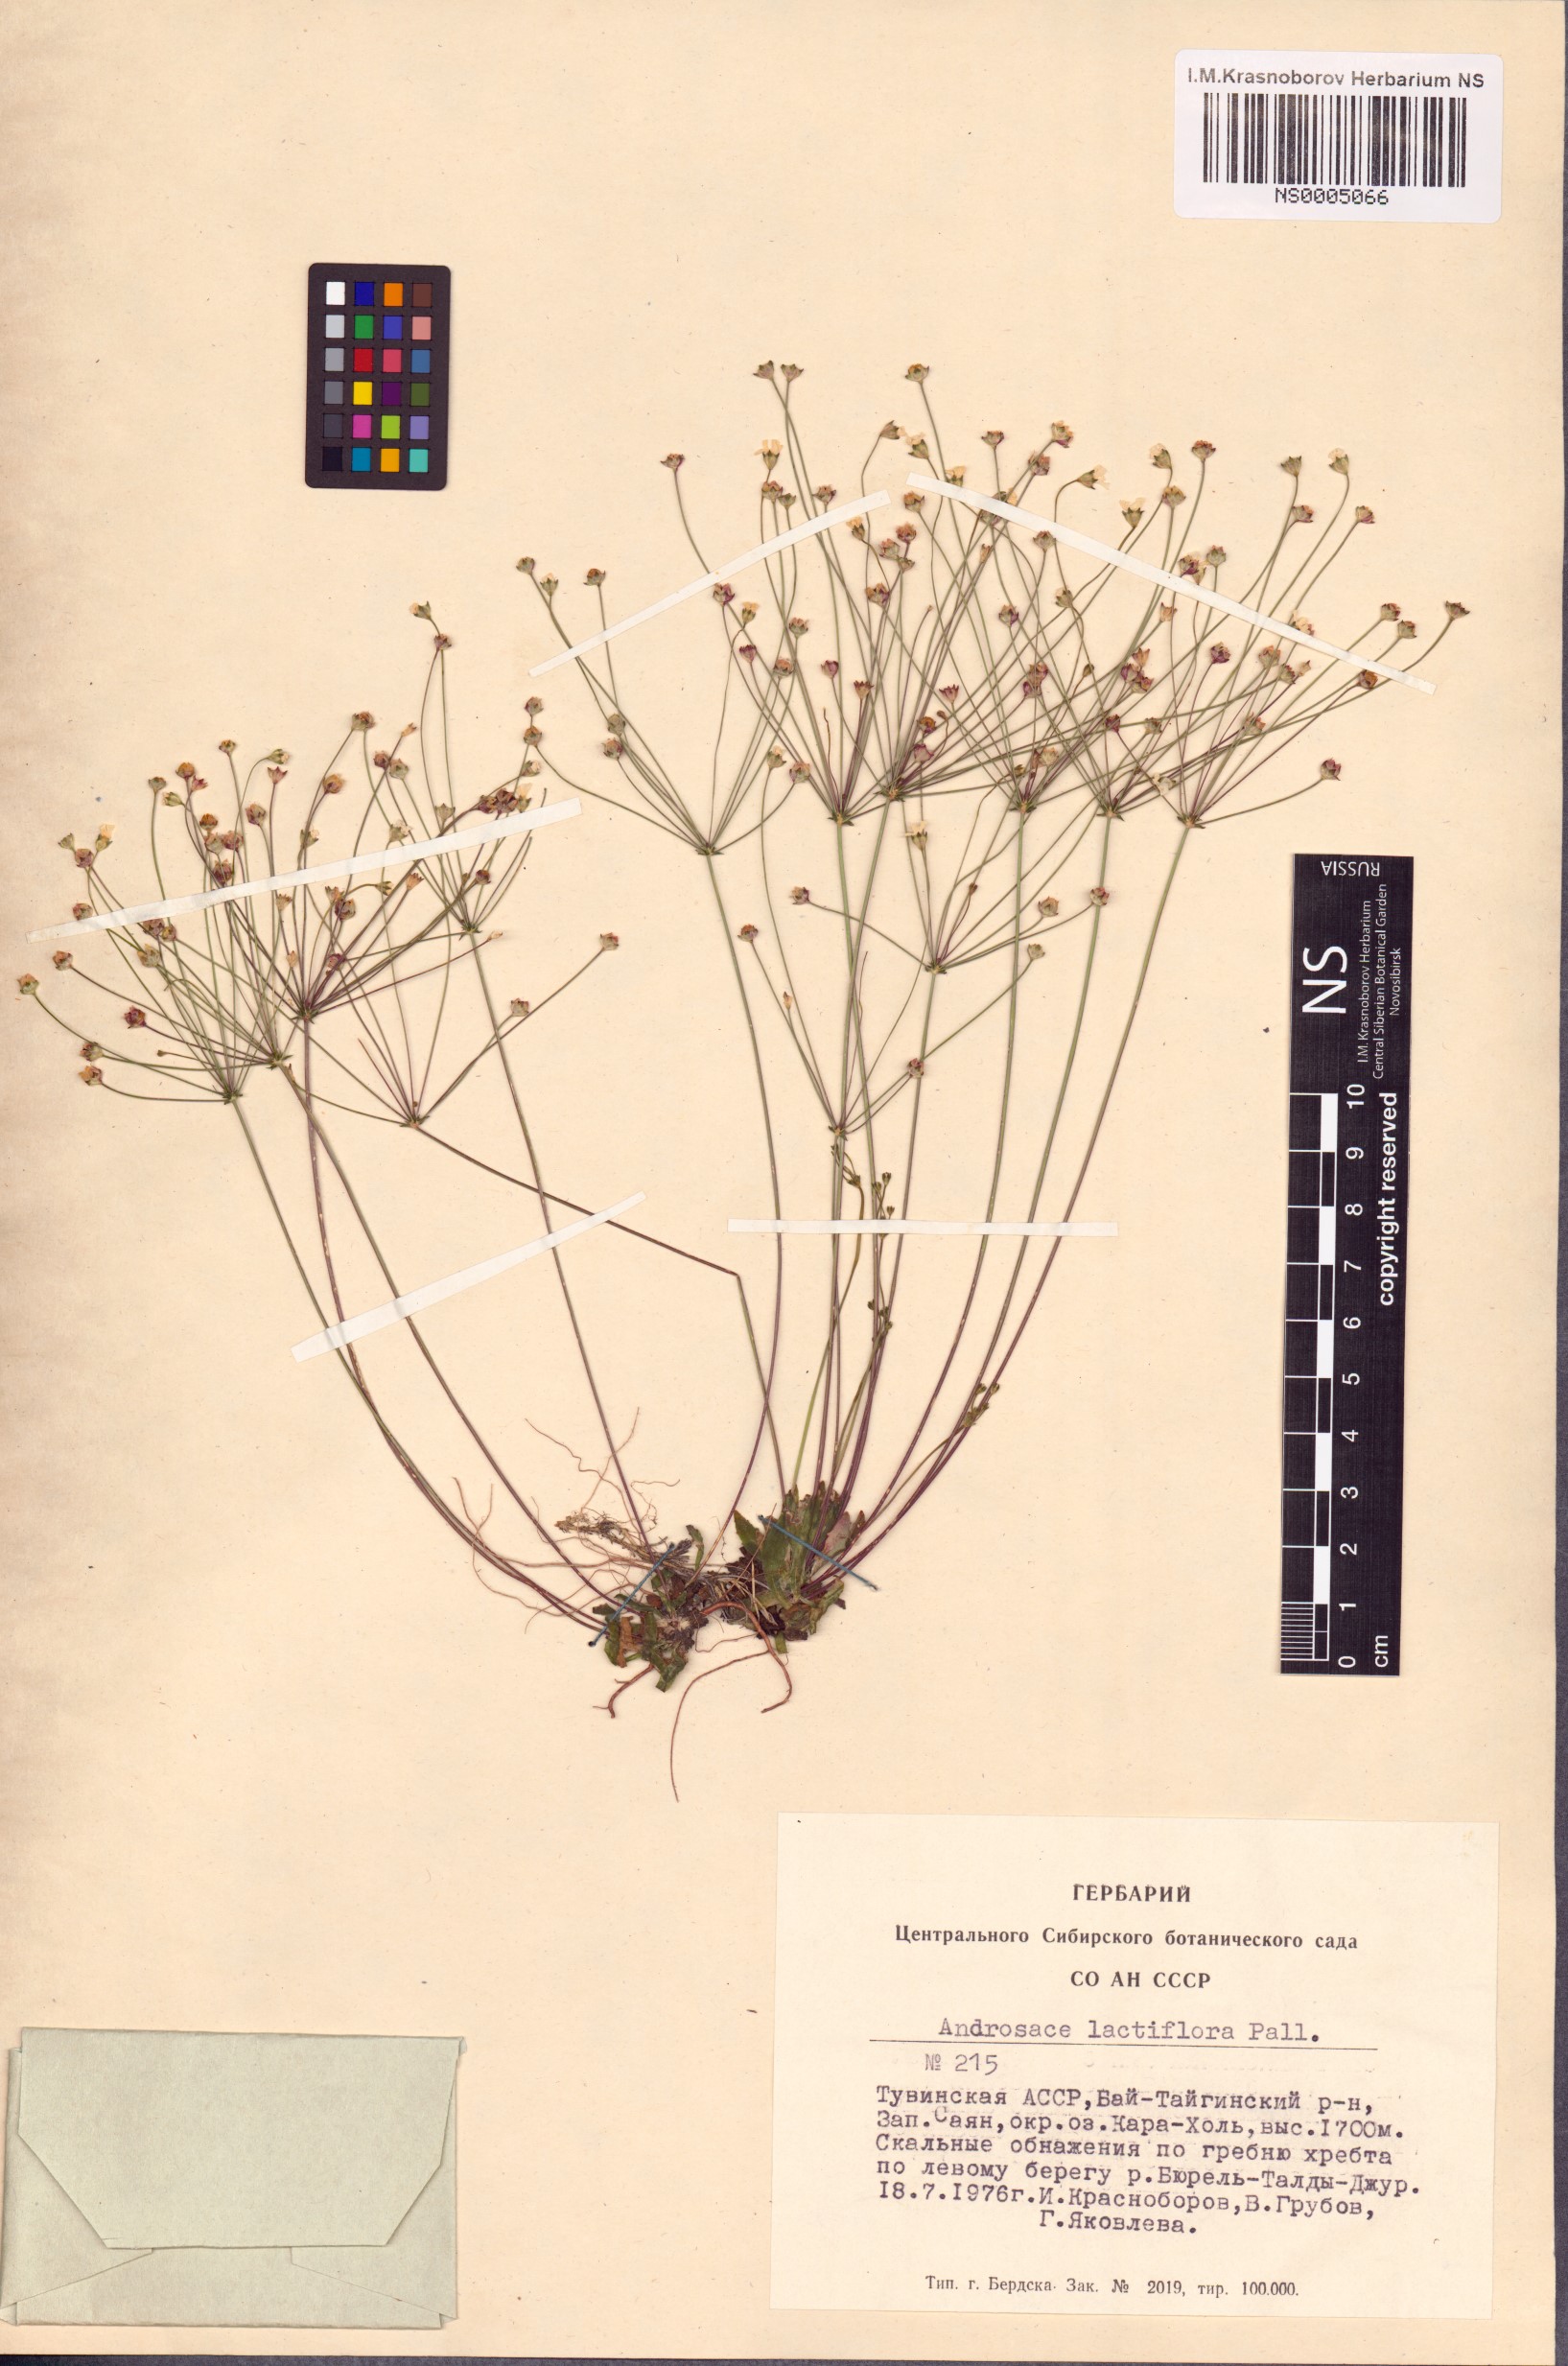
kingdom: Plantae
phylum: Tracheophyta
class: Magnoliopsida
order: Ericales
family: Primulaceae
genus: Androsace
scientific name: Androsace lactiflora
